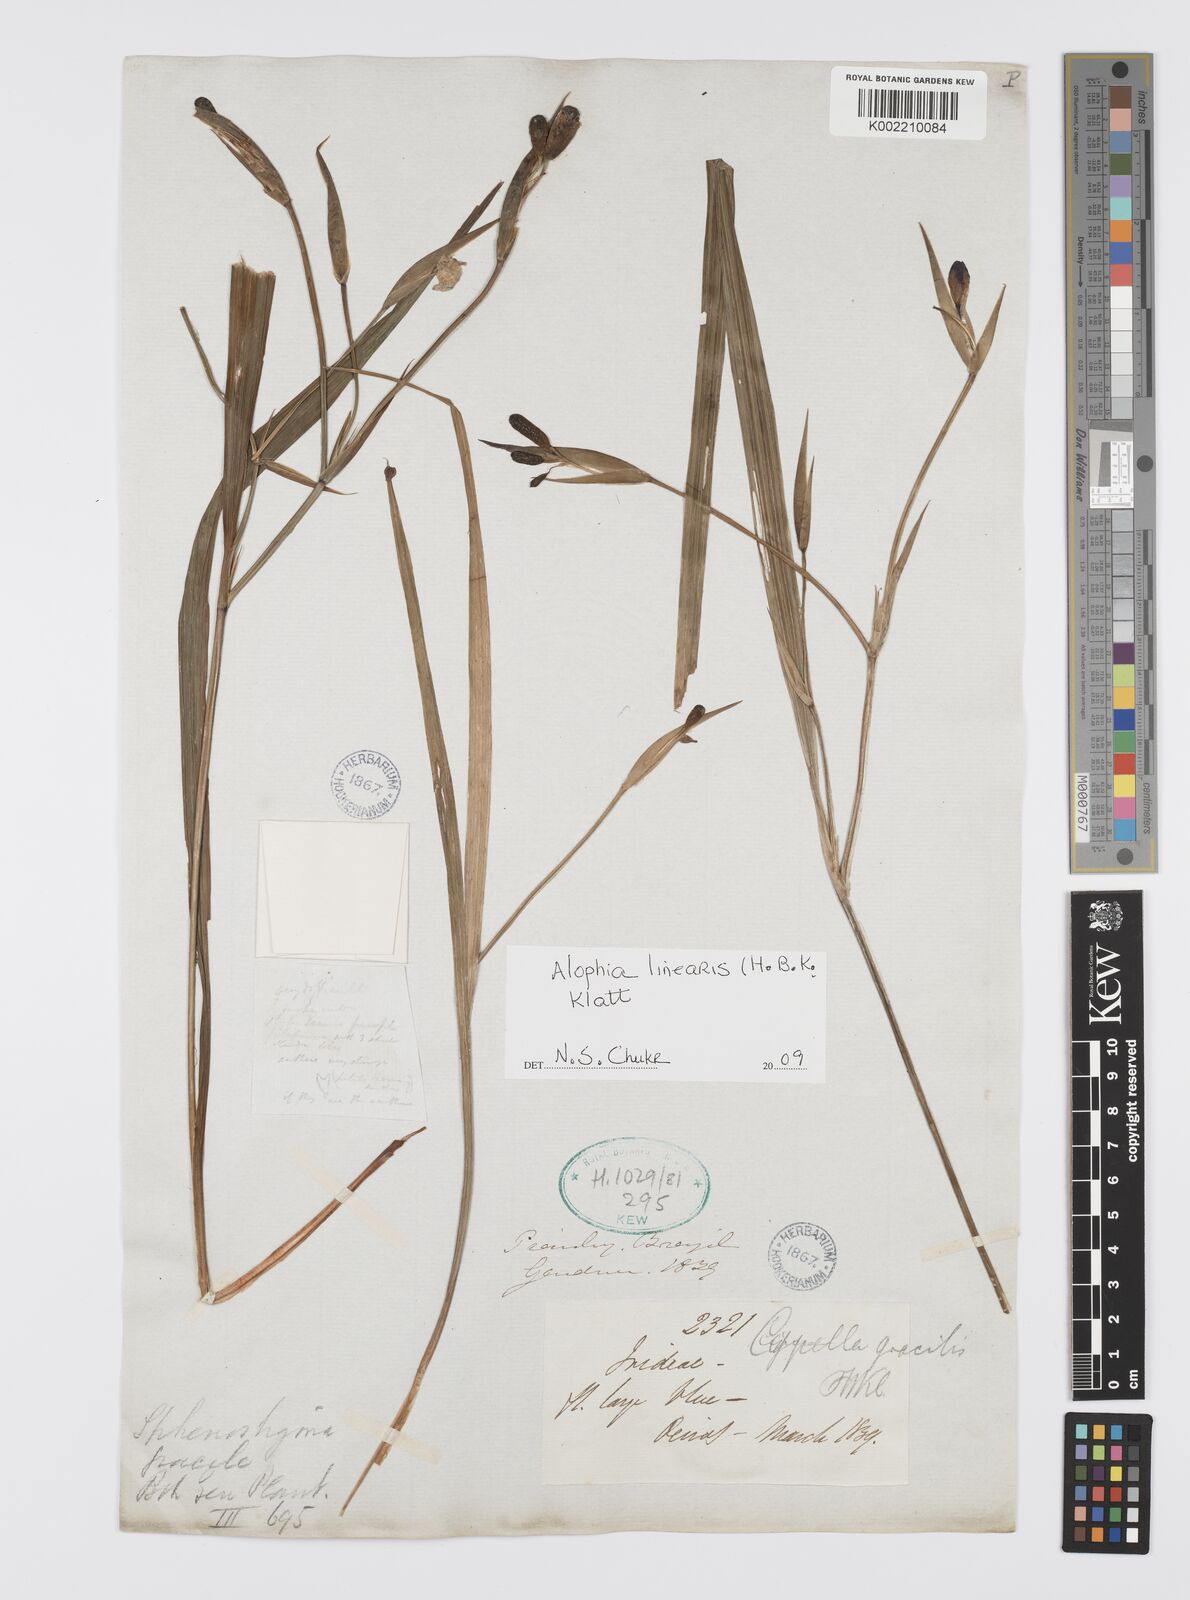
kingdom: Plantae
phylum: Tracheophyta
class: Liliopsida
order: Asparagales
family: Iridaceae
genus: Larentia
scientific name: Larentia linearis
